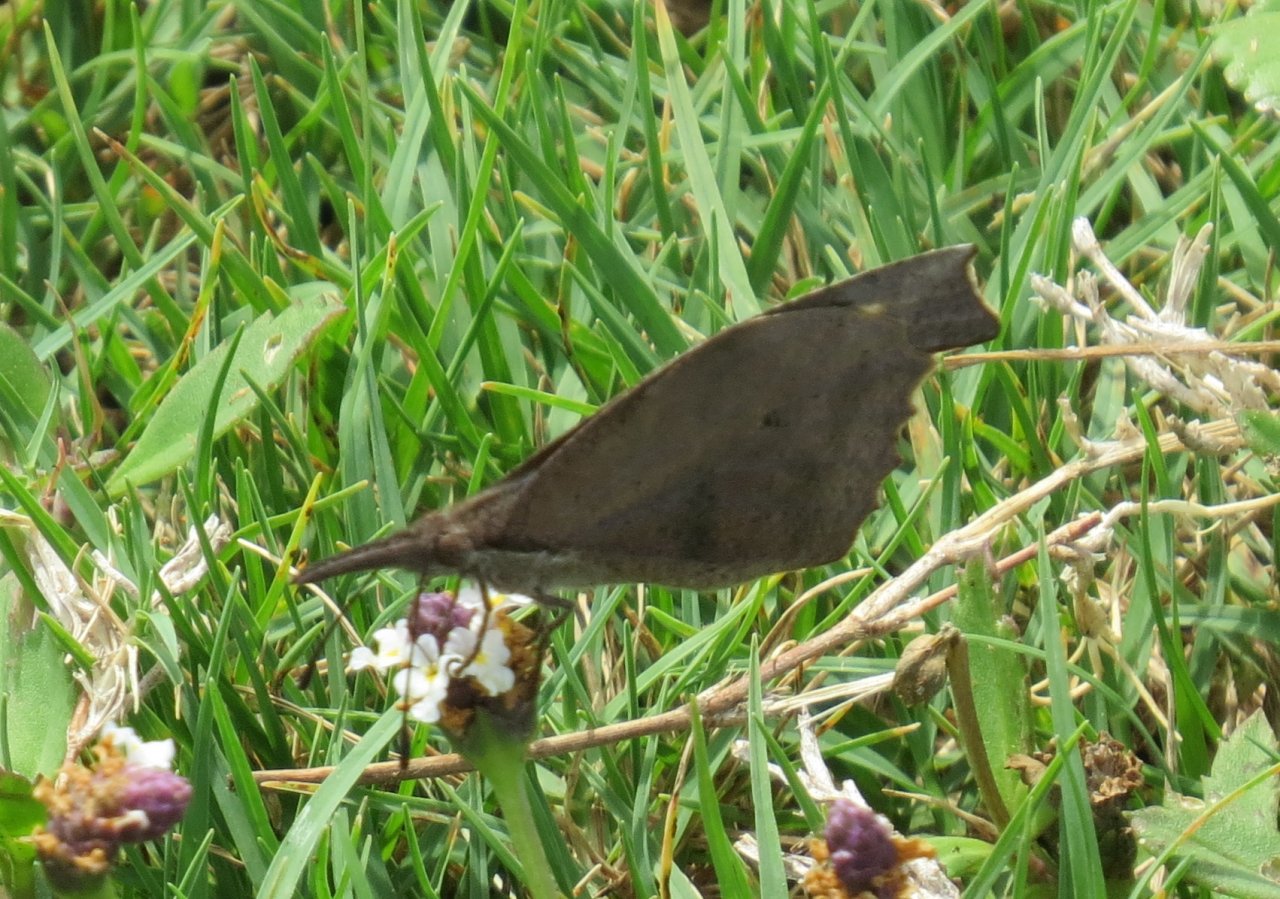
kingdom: Animalia
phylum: Arthropoda
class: Insecta
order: Lepidoptera
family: Nymphalidae
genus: Libytheana
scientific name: Libytheana carinenta
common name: American Snout
